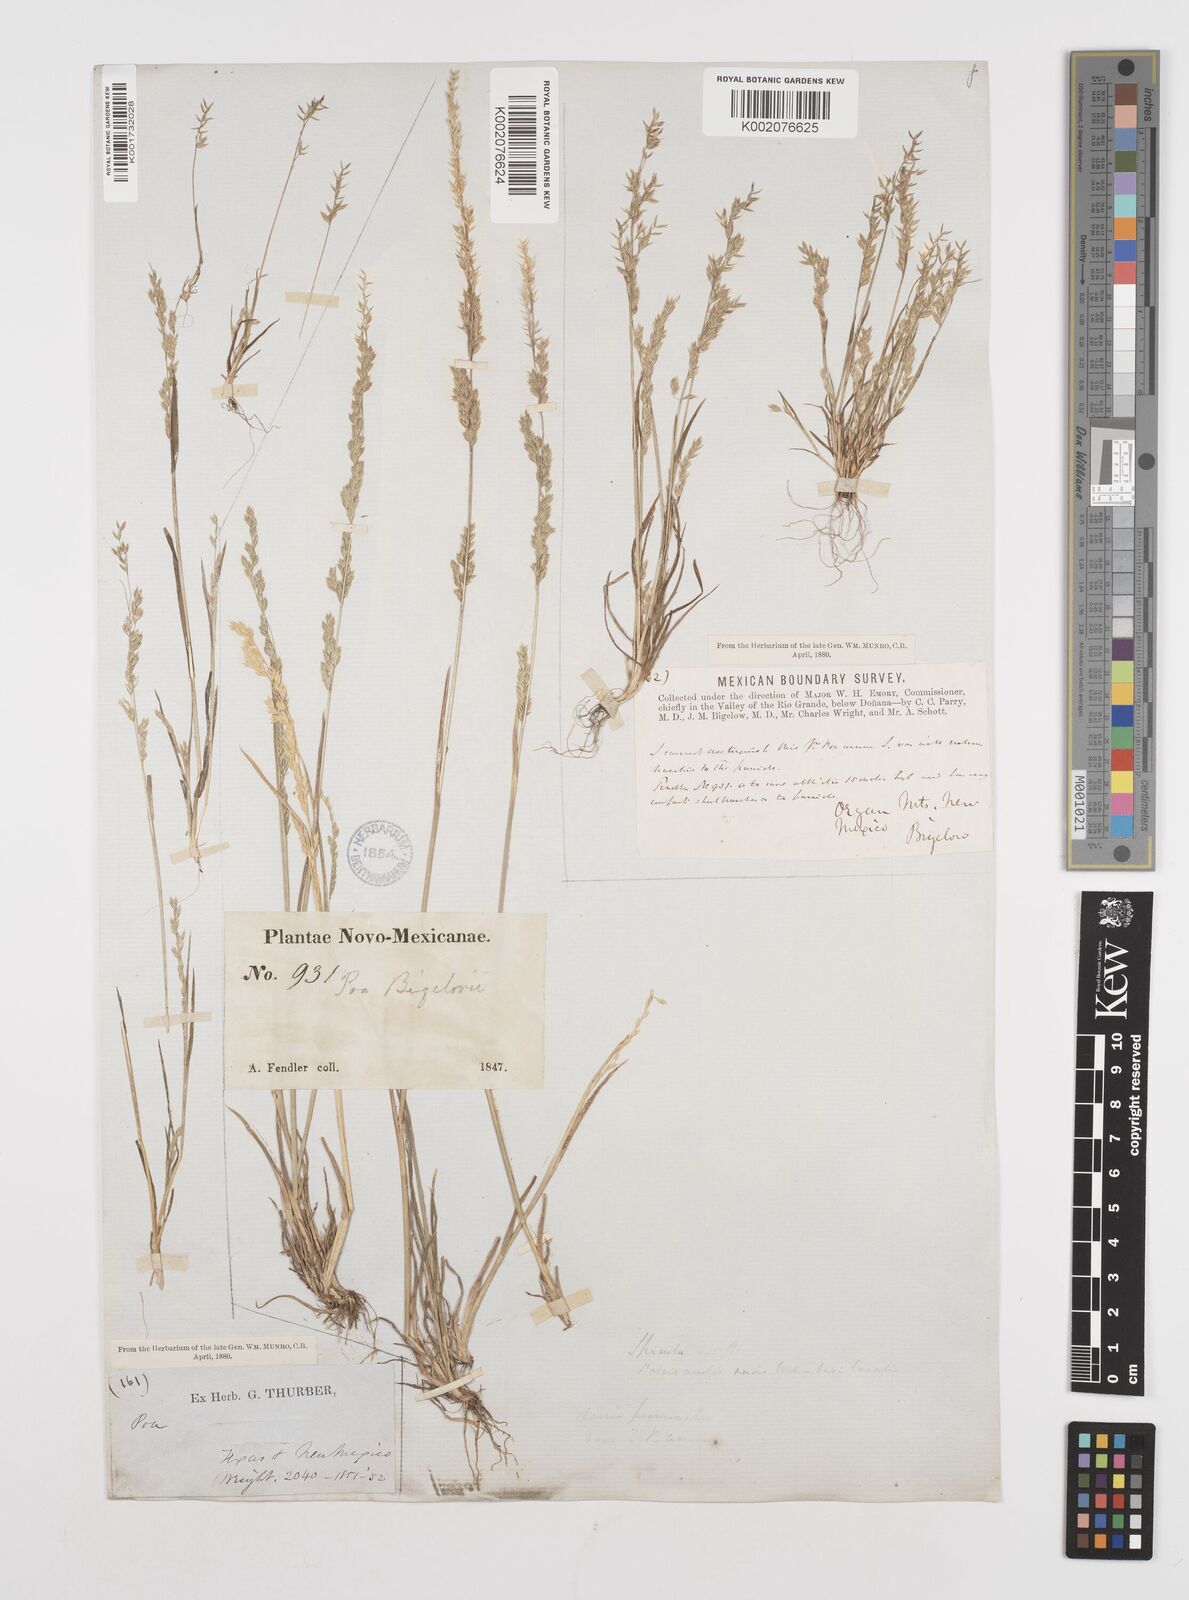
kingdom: Plantae
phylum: Tracheophyta
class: Liliopsida
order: Poales
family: Poaceae
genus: Poa
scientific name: Poa bigelovii
